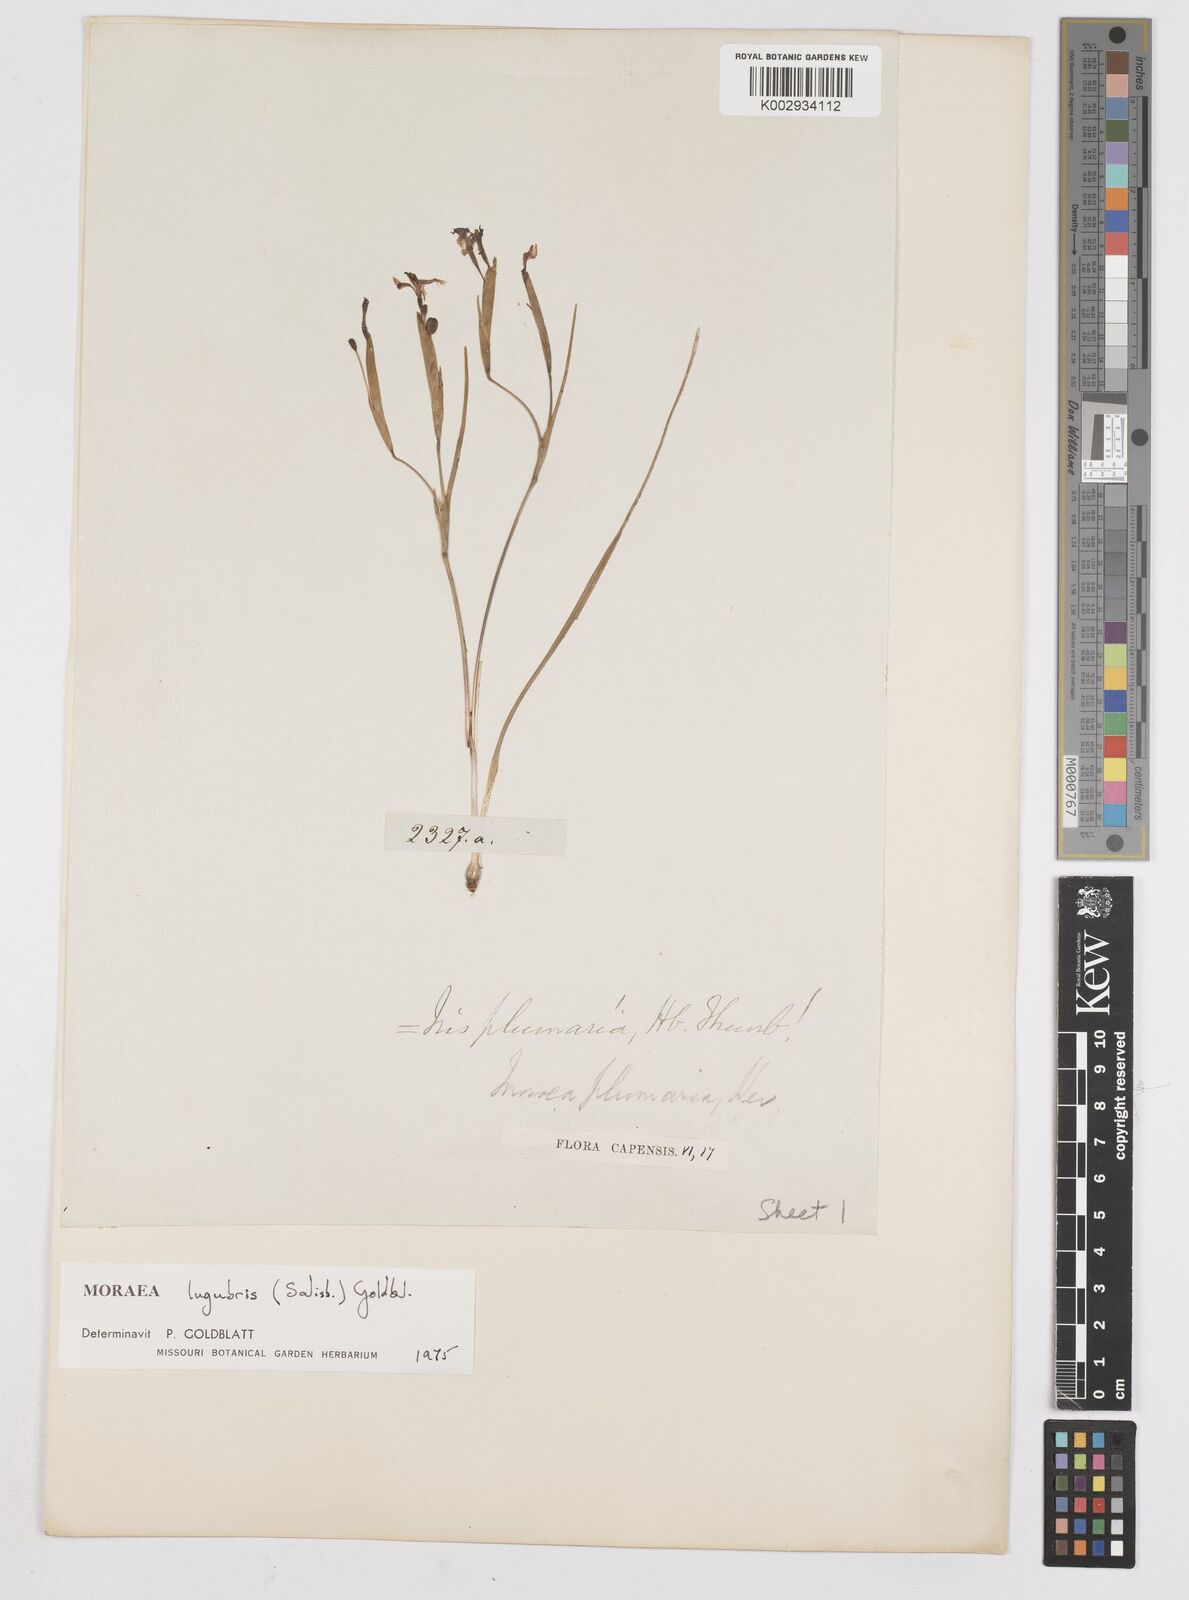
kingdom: Plantae
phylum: Tracheophyta
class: Liliopsida
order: Asparagales
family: Iridaceae
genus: Moraea
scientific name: Moraea lugubris
